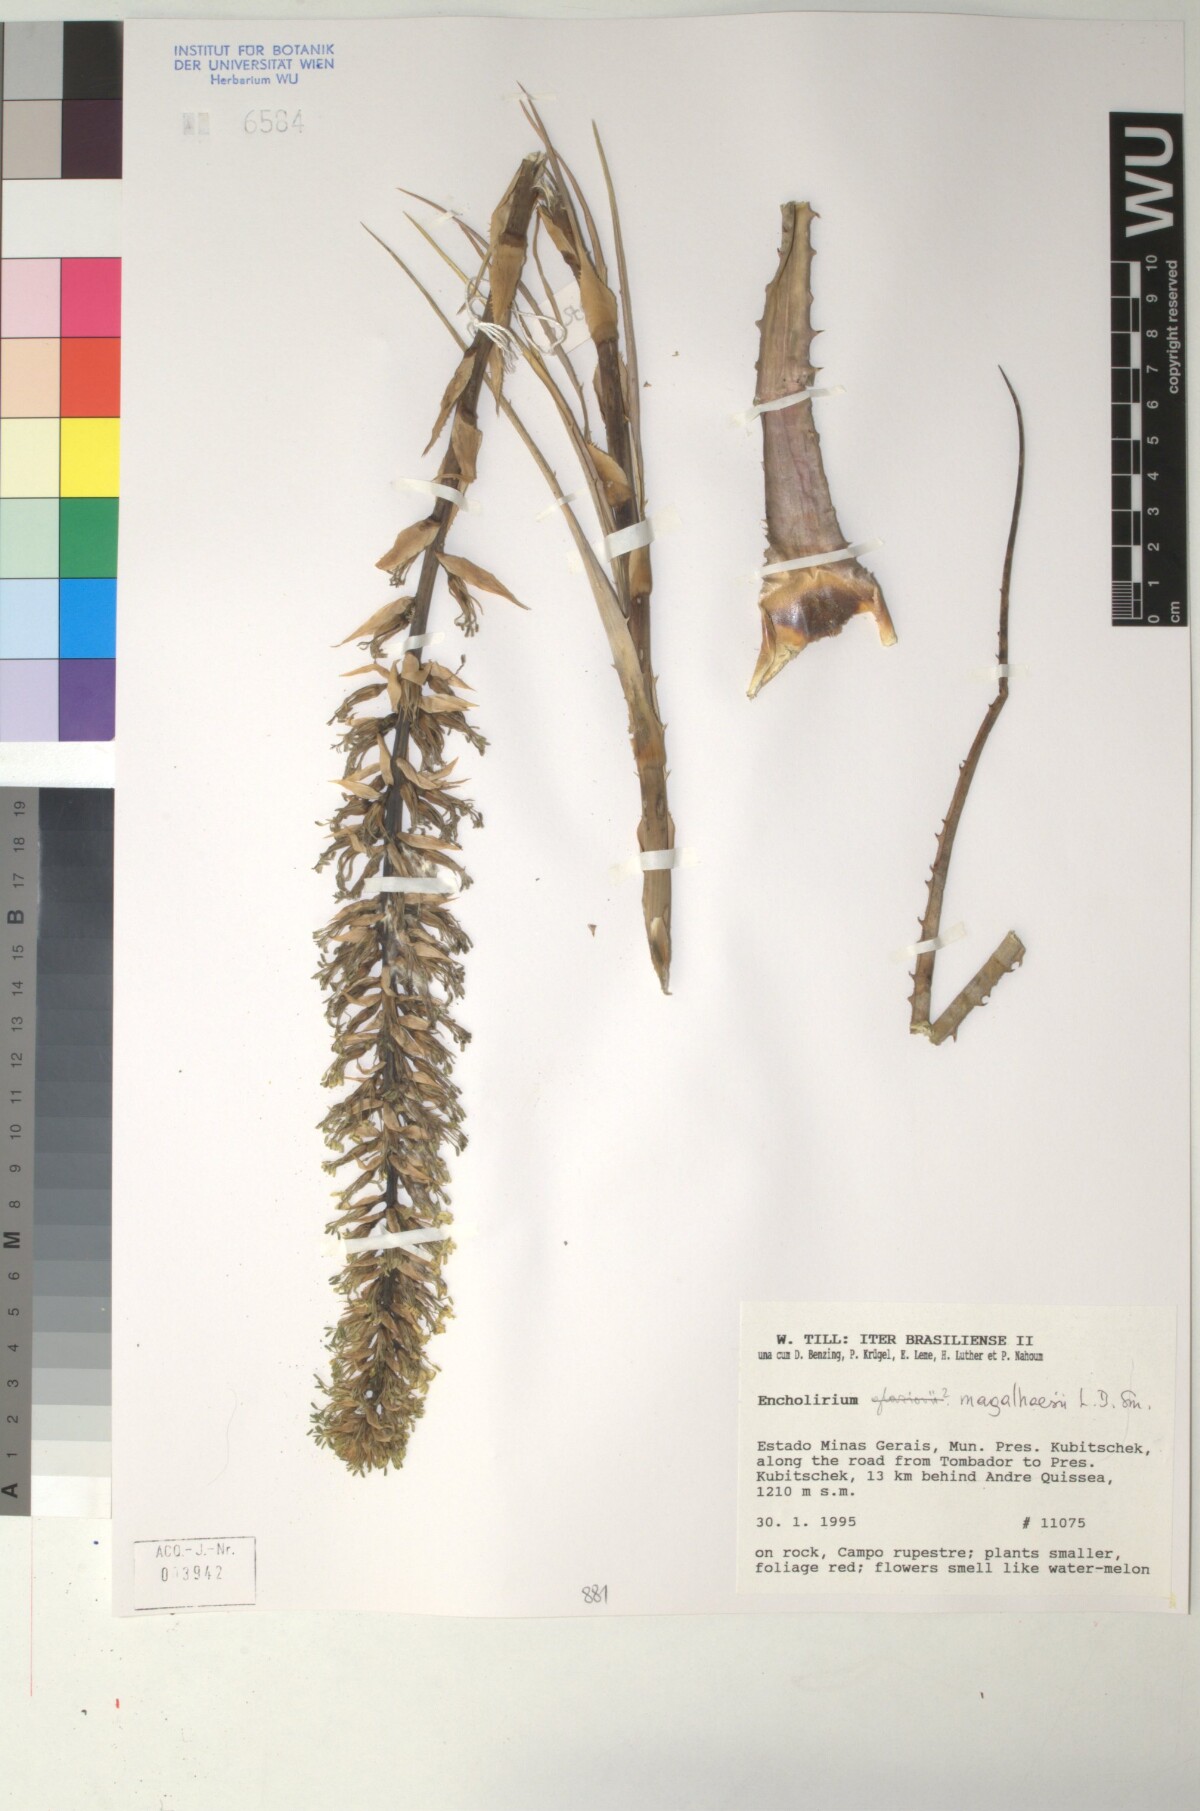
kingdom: Plantae
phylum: Tracheophyta
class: Liliopsida
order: Poales
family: Bromeliaceae
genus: Encholirium
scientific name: Encholirium magalhaesii
